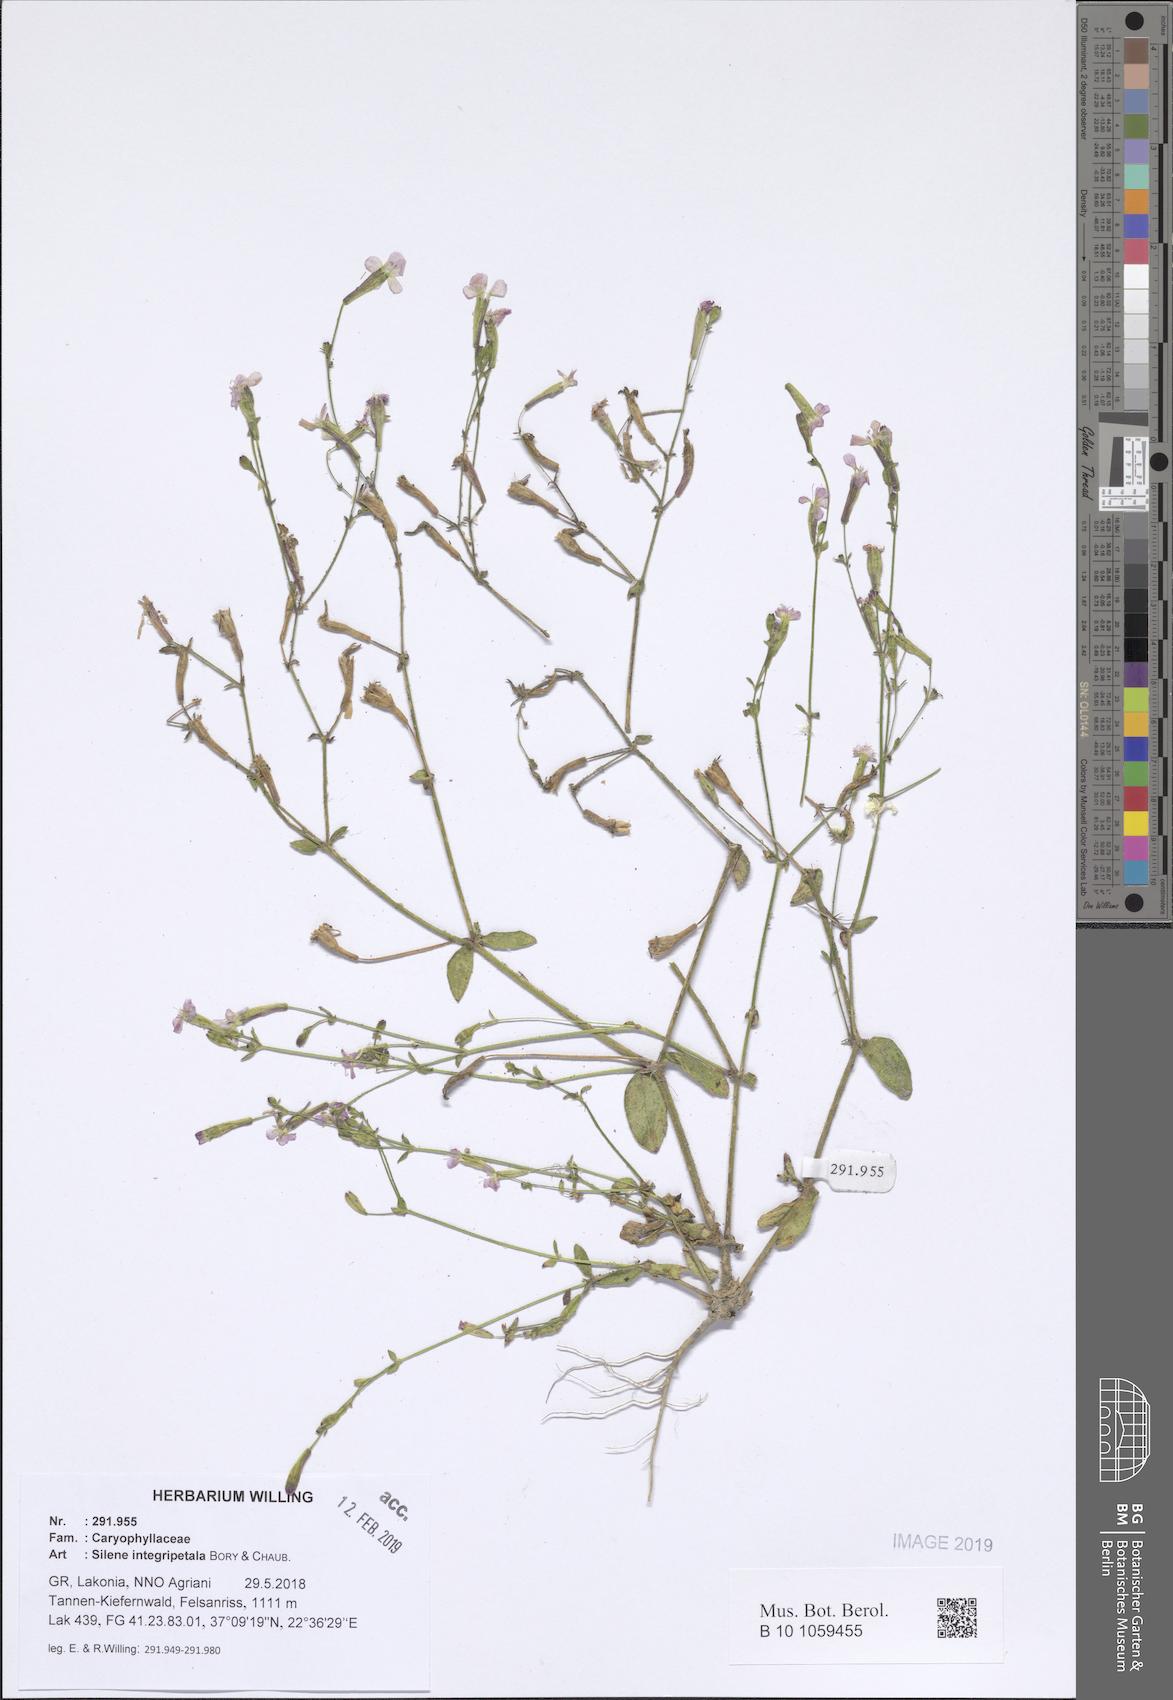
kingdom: Plantae
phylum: Tracheophyta
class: Magnoliopsida
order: Caryophyllales
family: Caryophyllaceae
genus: Silene
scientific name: Silene integripetala
